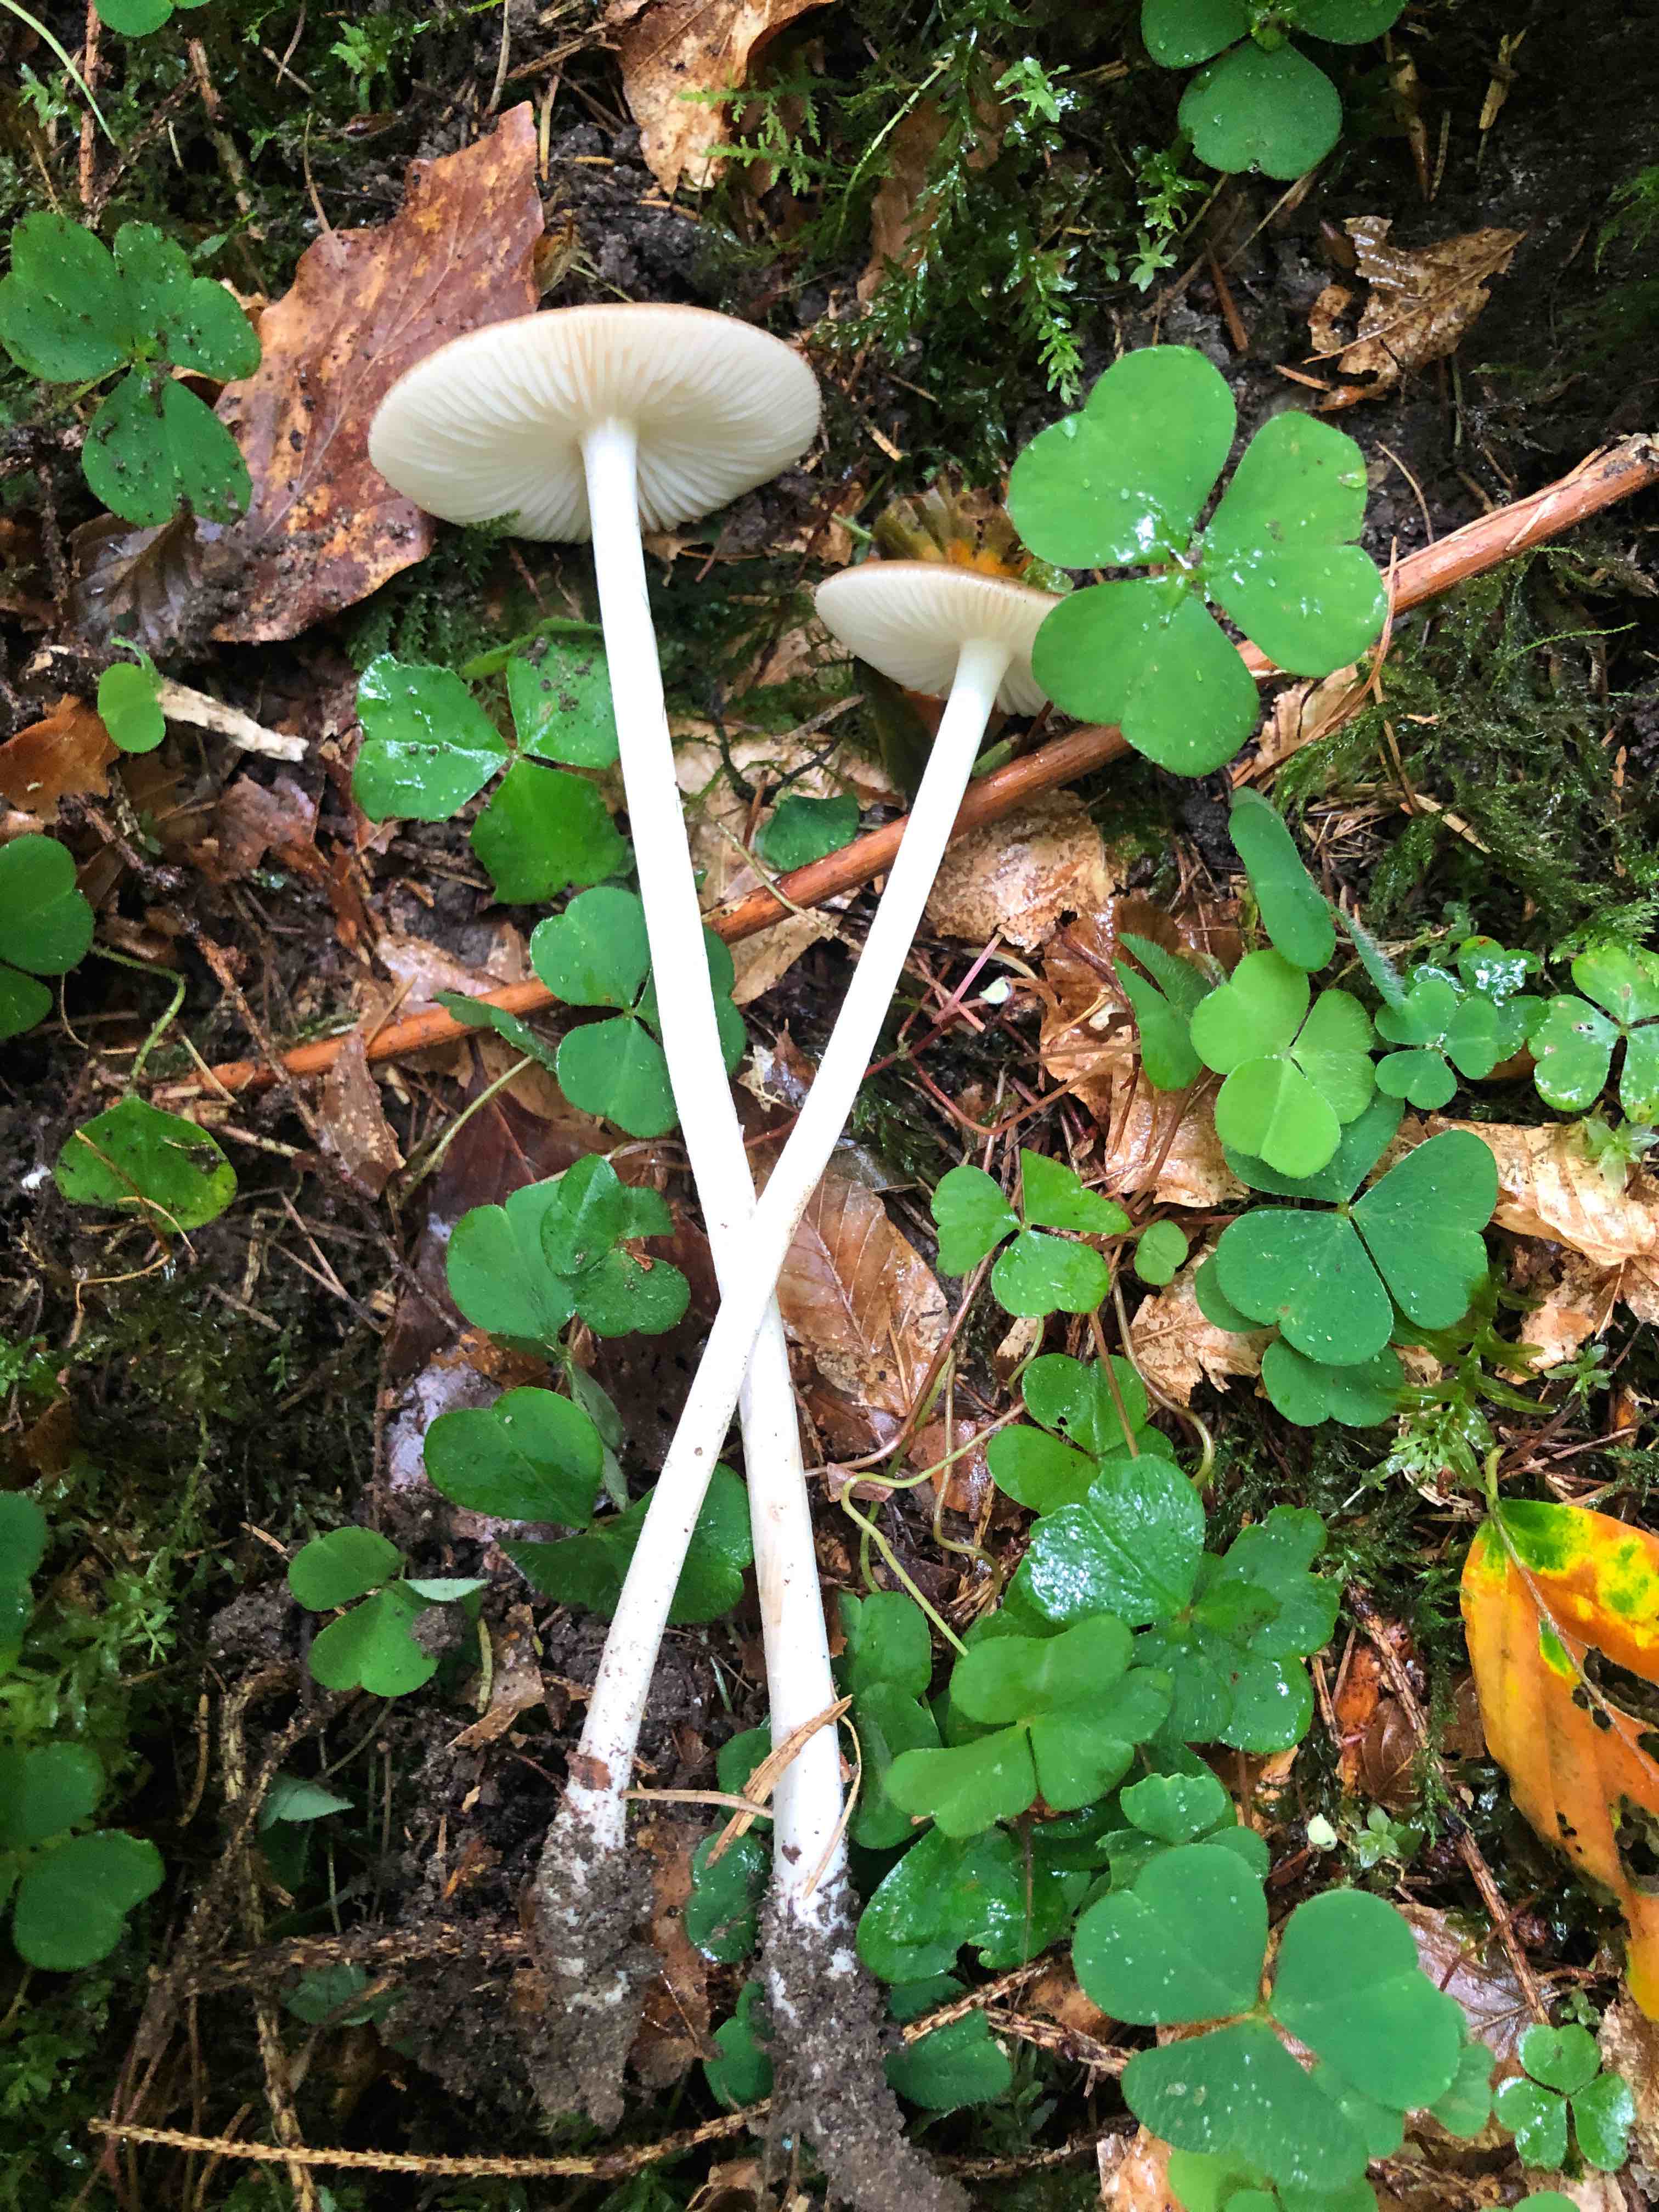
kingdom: Fungi
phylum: Basidiomycota
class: Agaricomycetes
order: Agaricales
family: Physalacriaceae
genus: Hymenopellis
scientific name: Hymenopellis radicata
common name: almindelig pælerodshat
